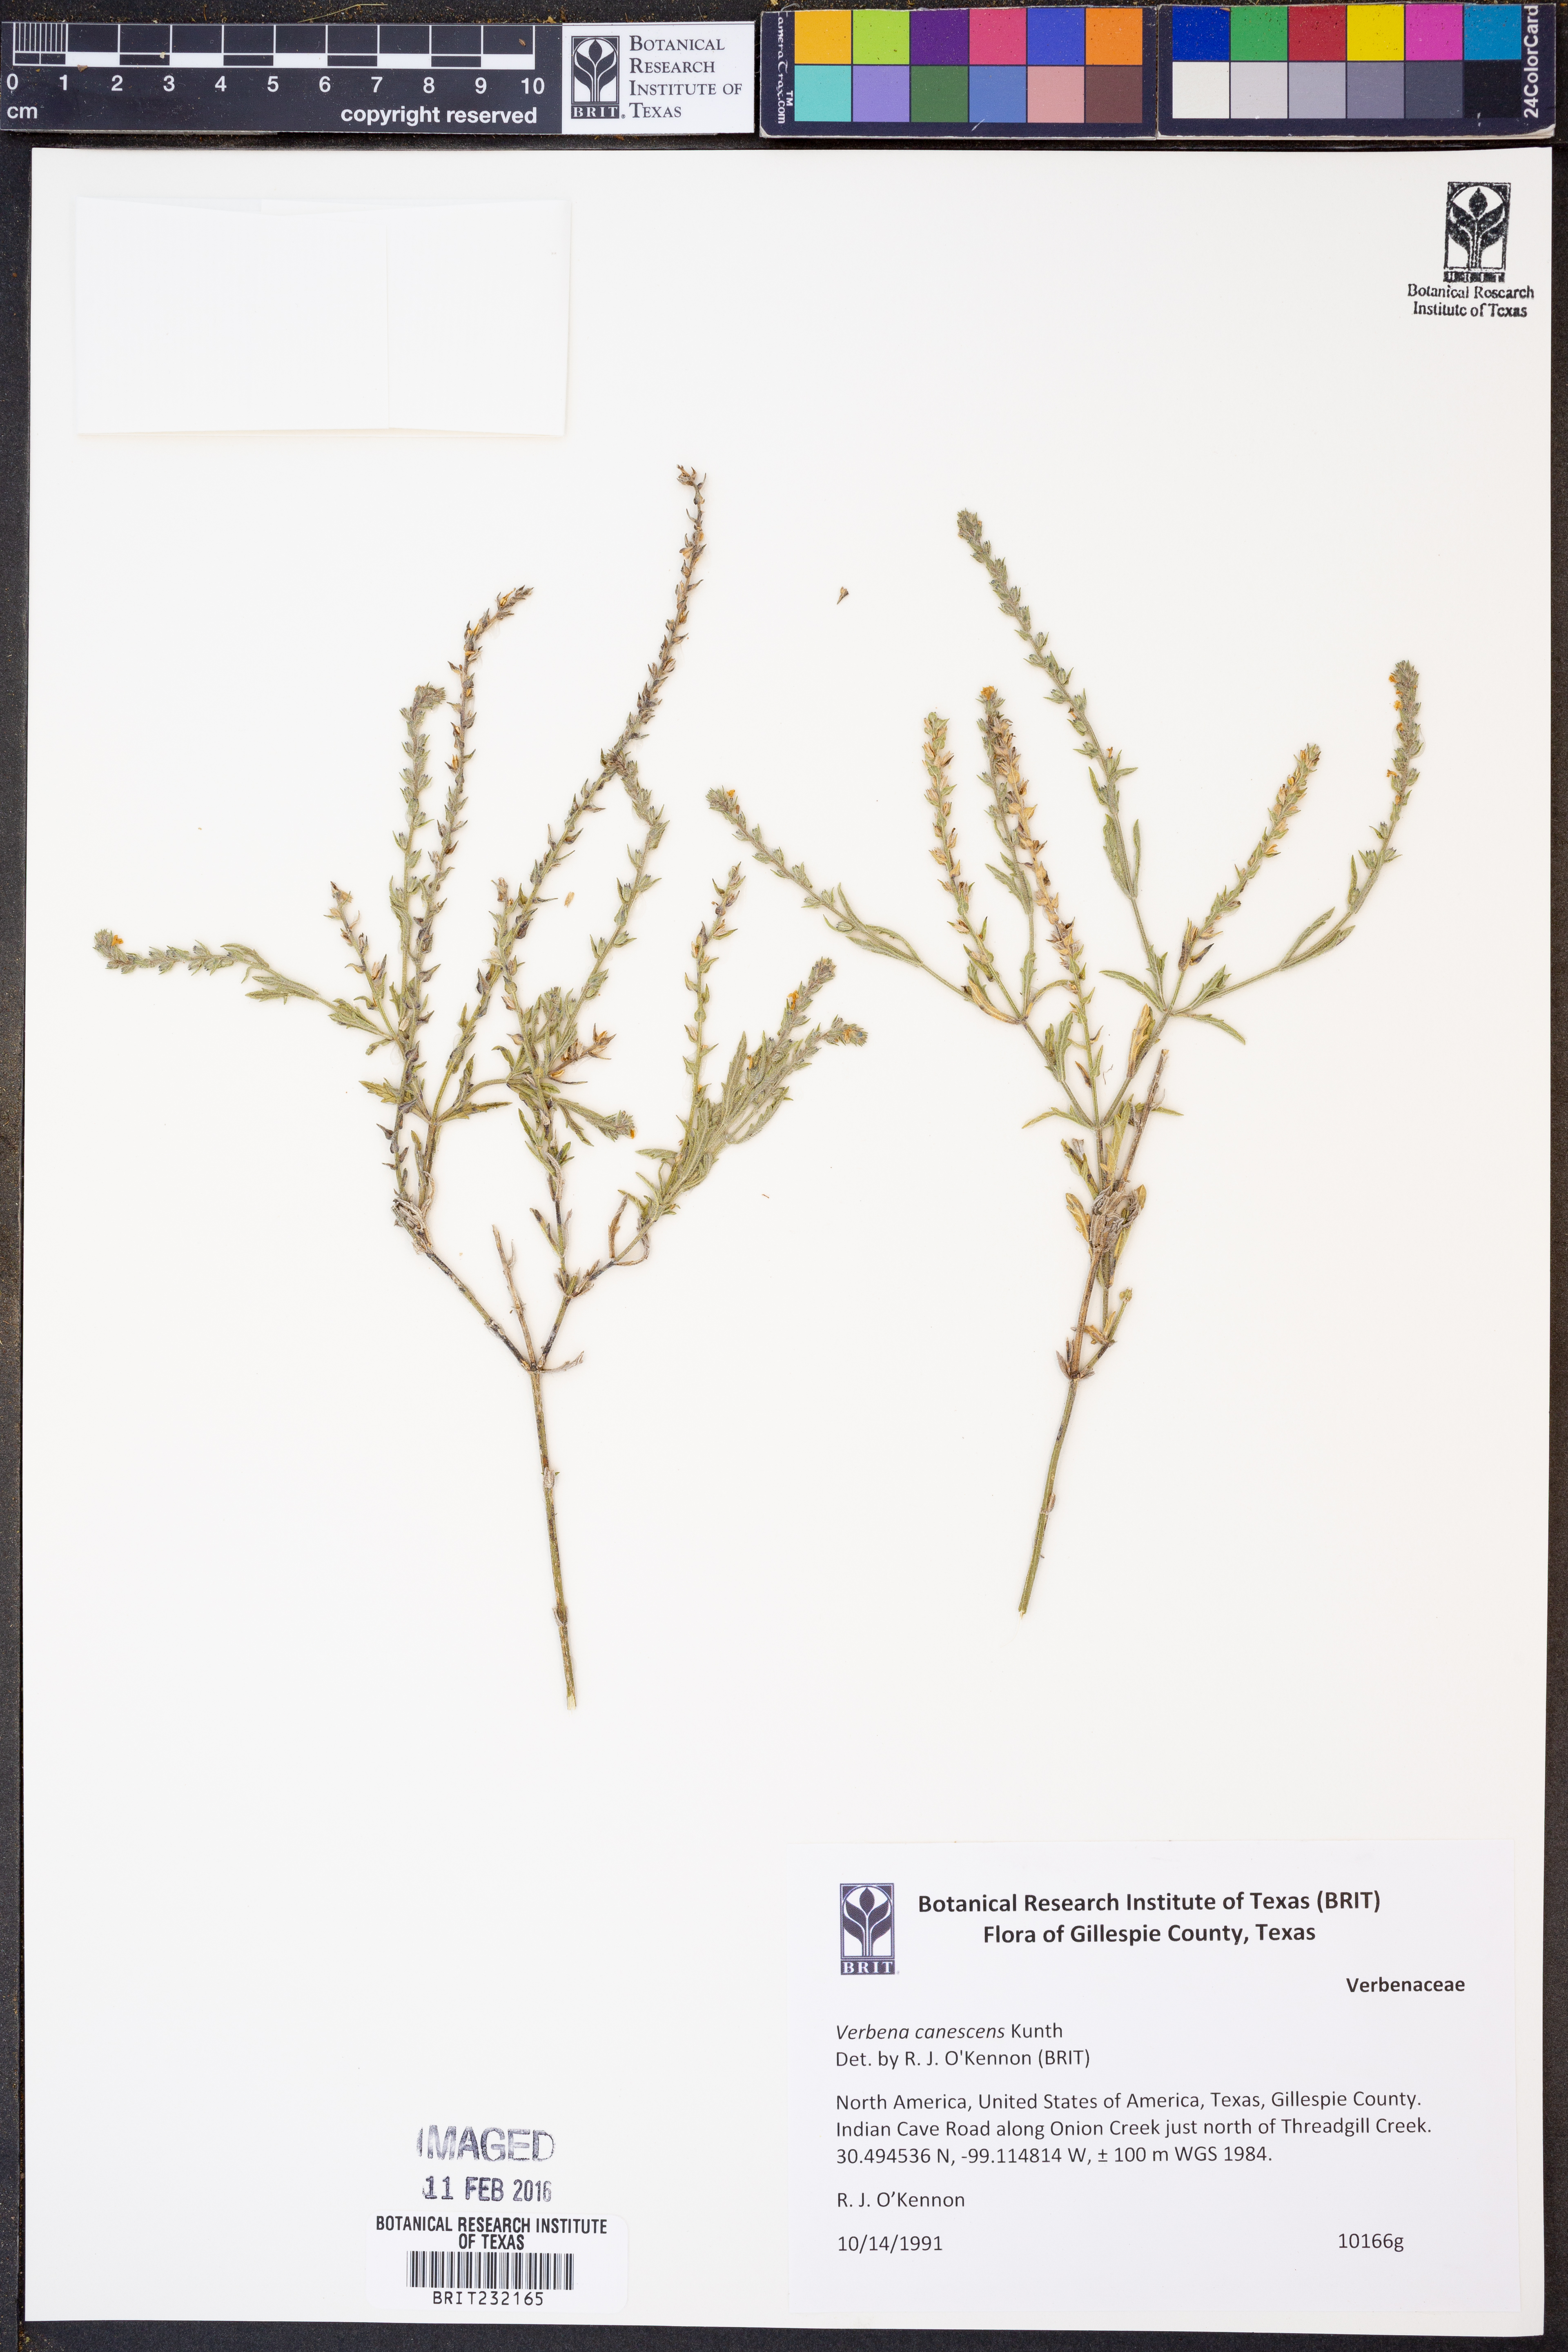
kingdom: Plantae
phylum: Tracheophyta
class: Magnoliopsida
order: Lamiales
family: Verbenaceae
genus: Verbena
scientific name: Verbena canescens
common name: Gray vervain
